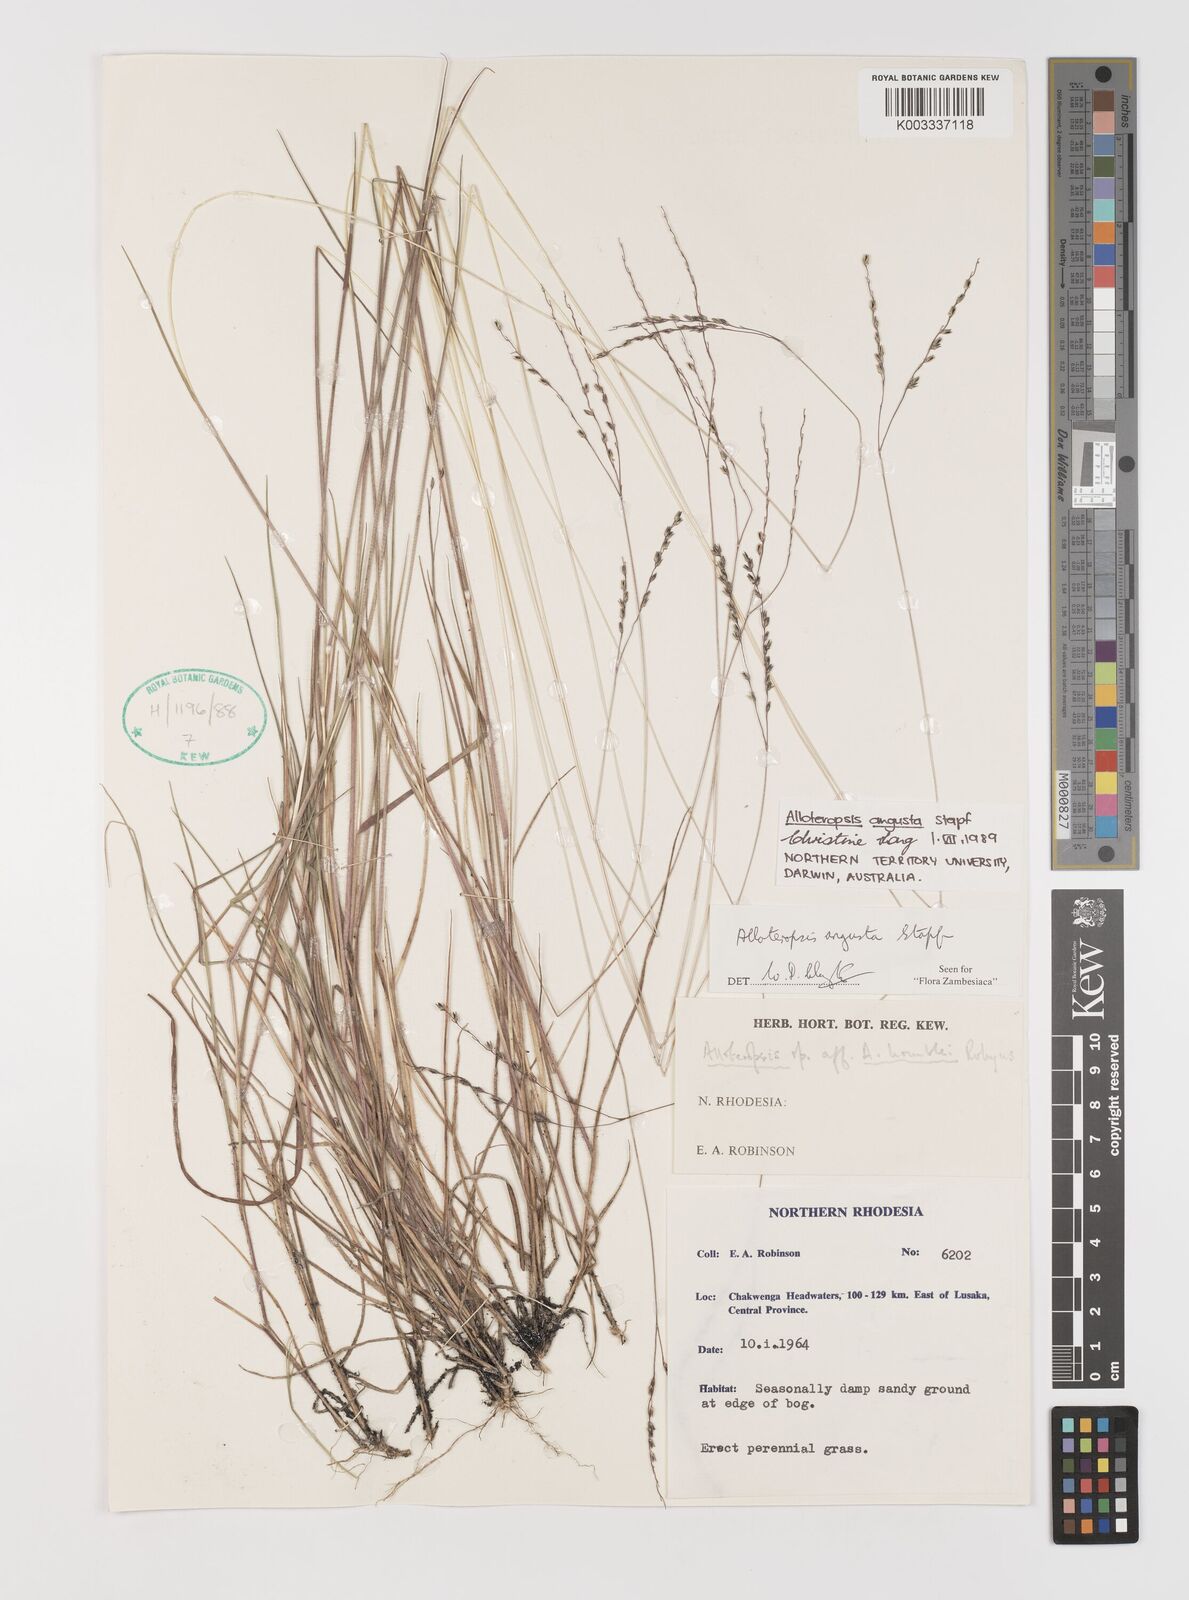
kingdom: Plantae
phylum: Tracheophyta
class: Liliopsida
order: Poales
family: Poaceae
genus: Alloteropsis
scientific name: Alloteropsis angusta
